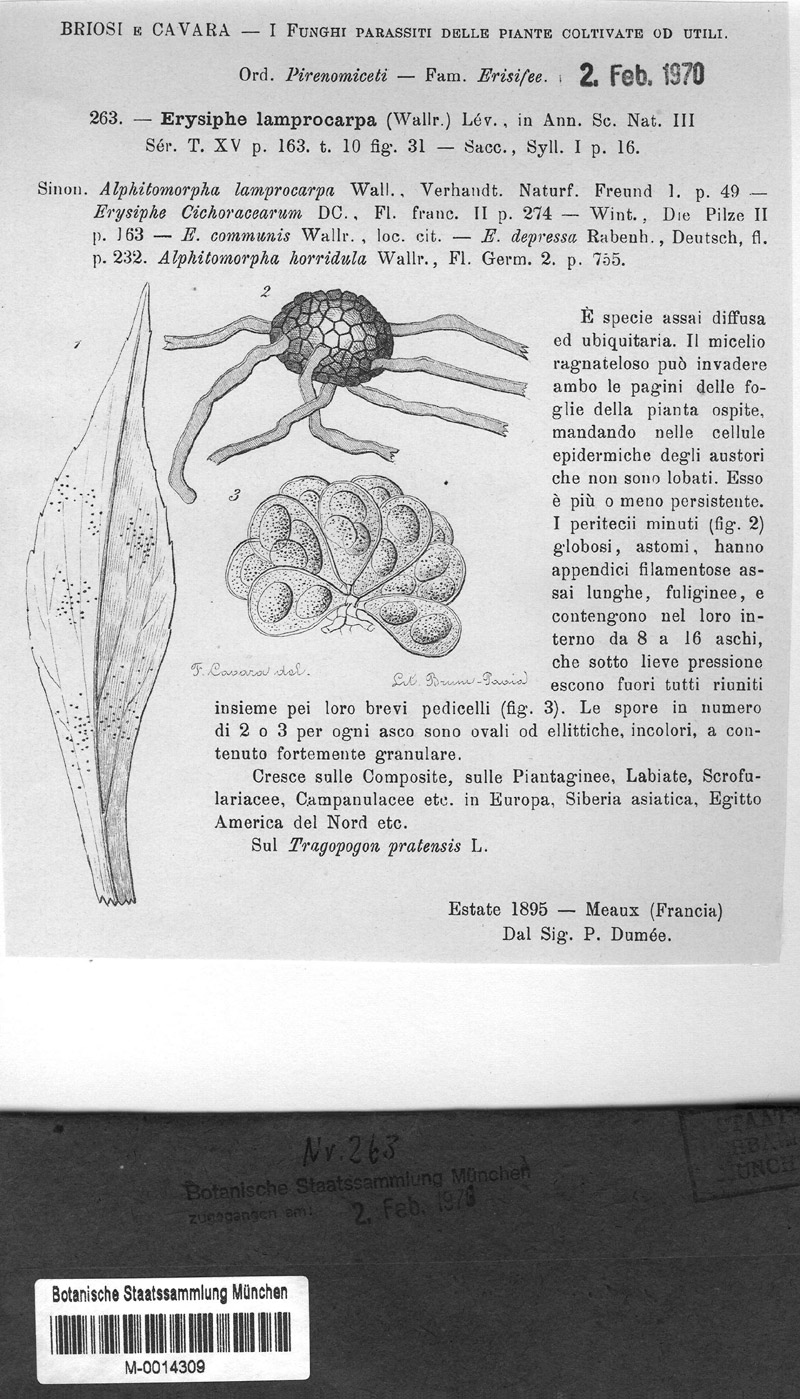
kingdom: Fungi
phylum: Ascomycota
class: Leotiomycetes
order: Helotiales
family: Erysiphaceae
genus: Erysiphe
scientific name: Erysiphe cichoracearum
